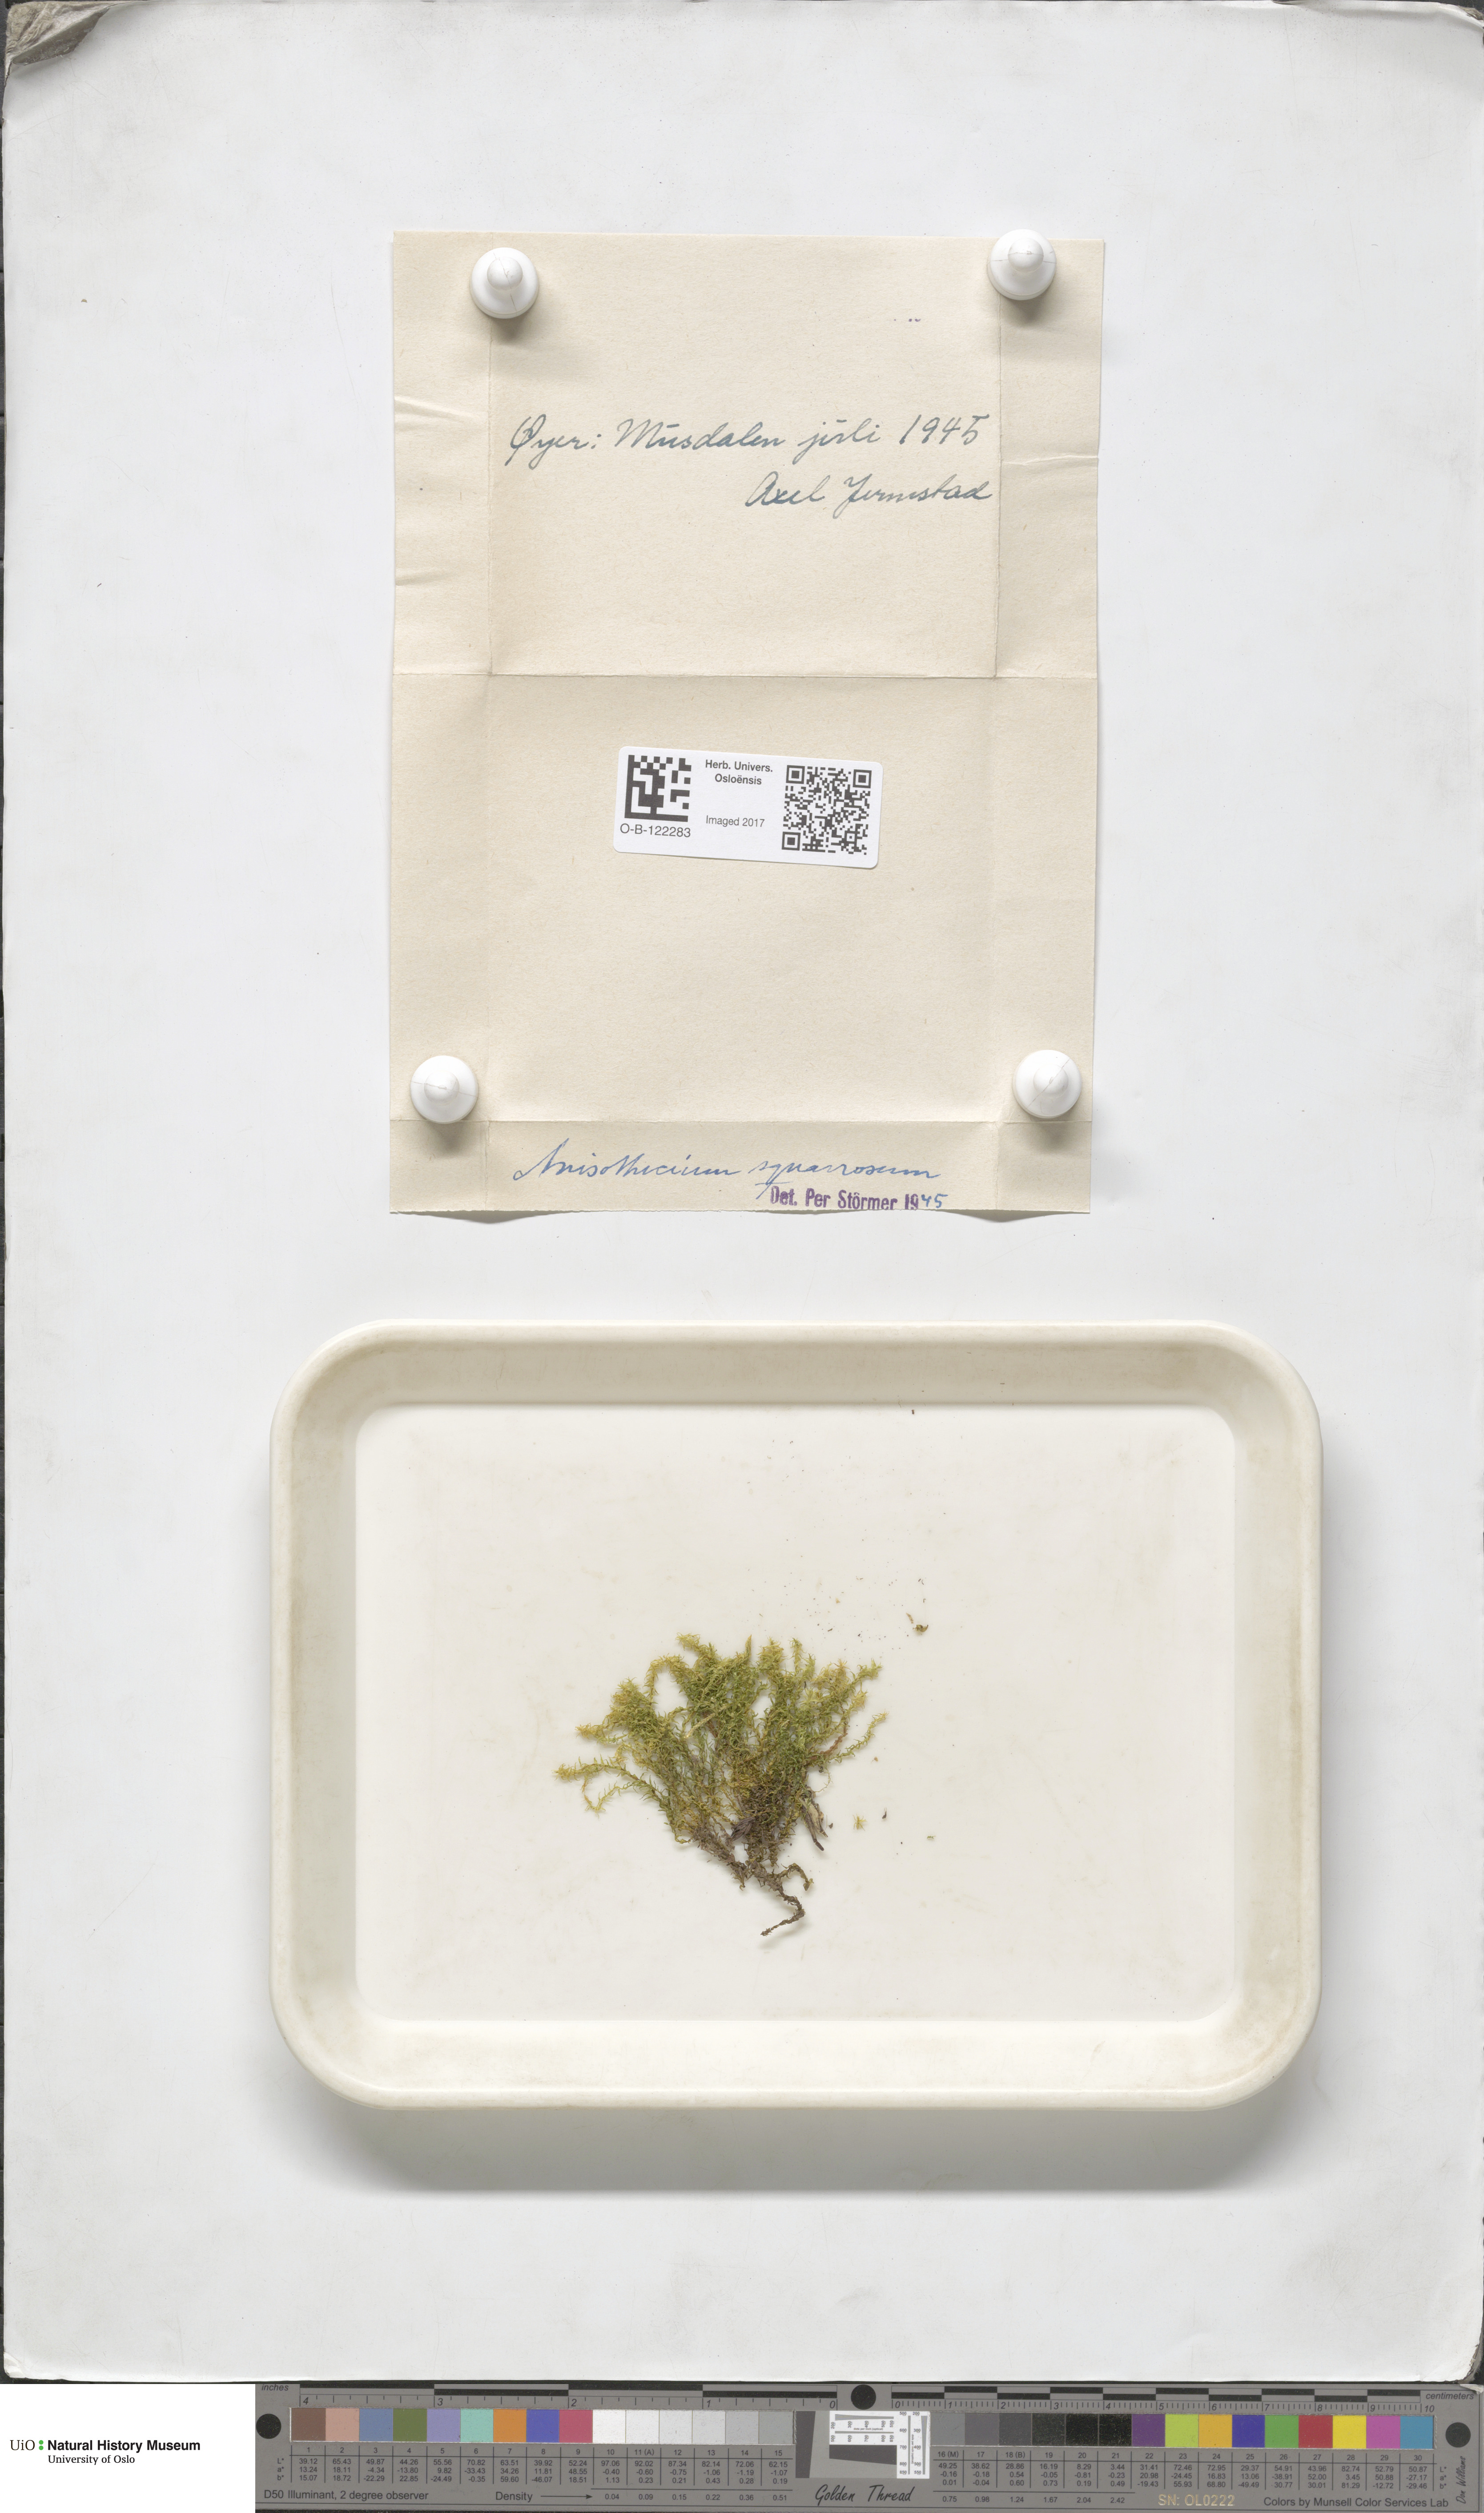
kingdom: Plantae
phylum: Bryophyta
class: Bryopsida
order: Dicranales
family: Aongstroemiaceae
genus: Diobelonella
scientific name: Diobelonella palustris
